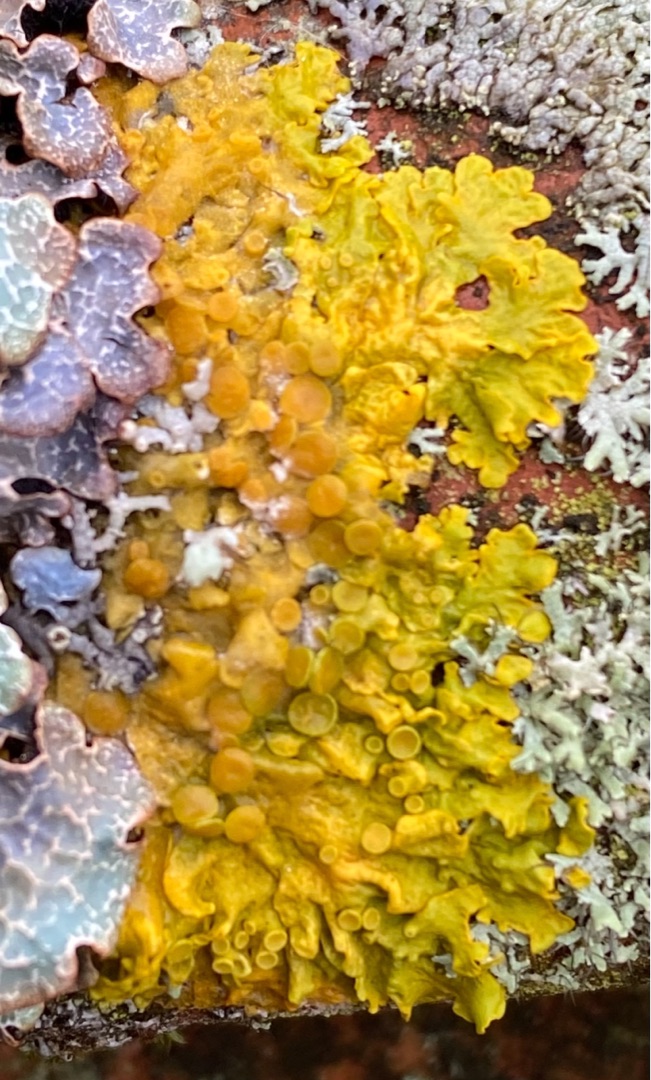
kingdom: Fungi
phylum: Ascomycota
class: Lecanoromycetes
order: Teloschistales
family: Teloschistaceae
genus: Xanthoria
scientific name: Xanthoria parietina
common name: Almindelig væggelav
